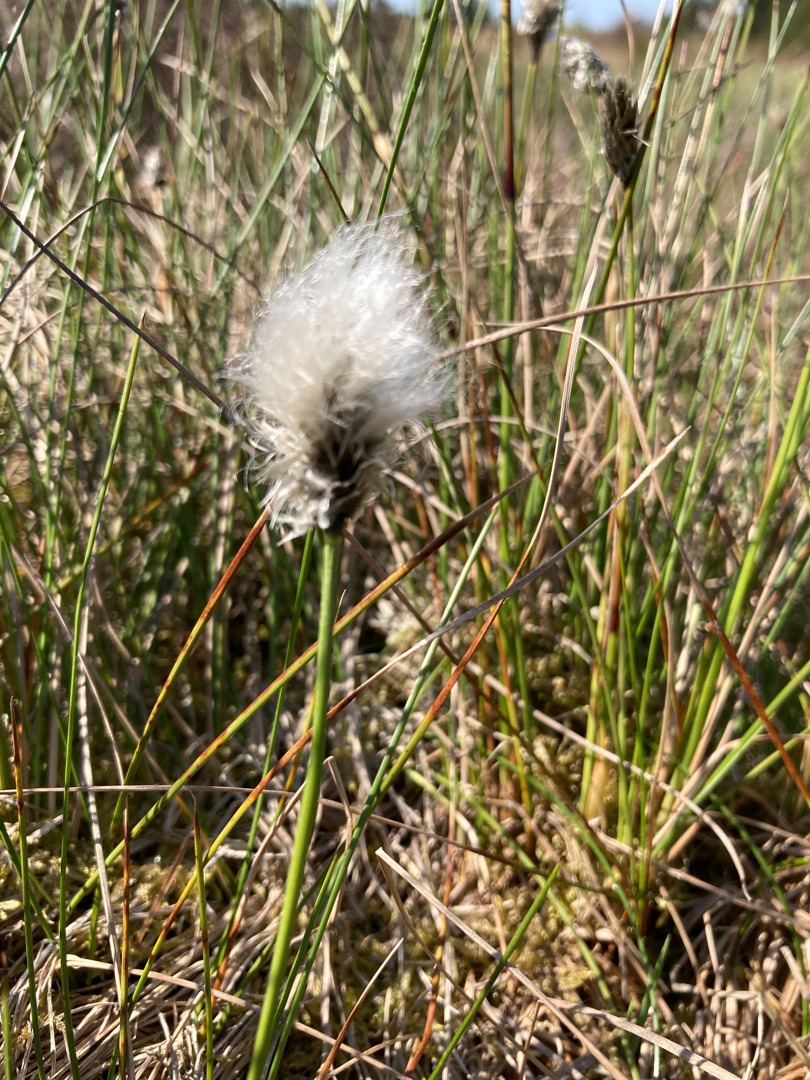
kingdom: Plantae
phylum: Tracheophyta
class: Liliopsida
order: Poales
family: Cyperaceae
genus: Eriophorum
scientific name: Eriophorum vaginatum
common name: Tue-kæruld
